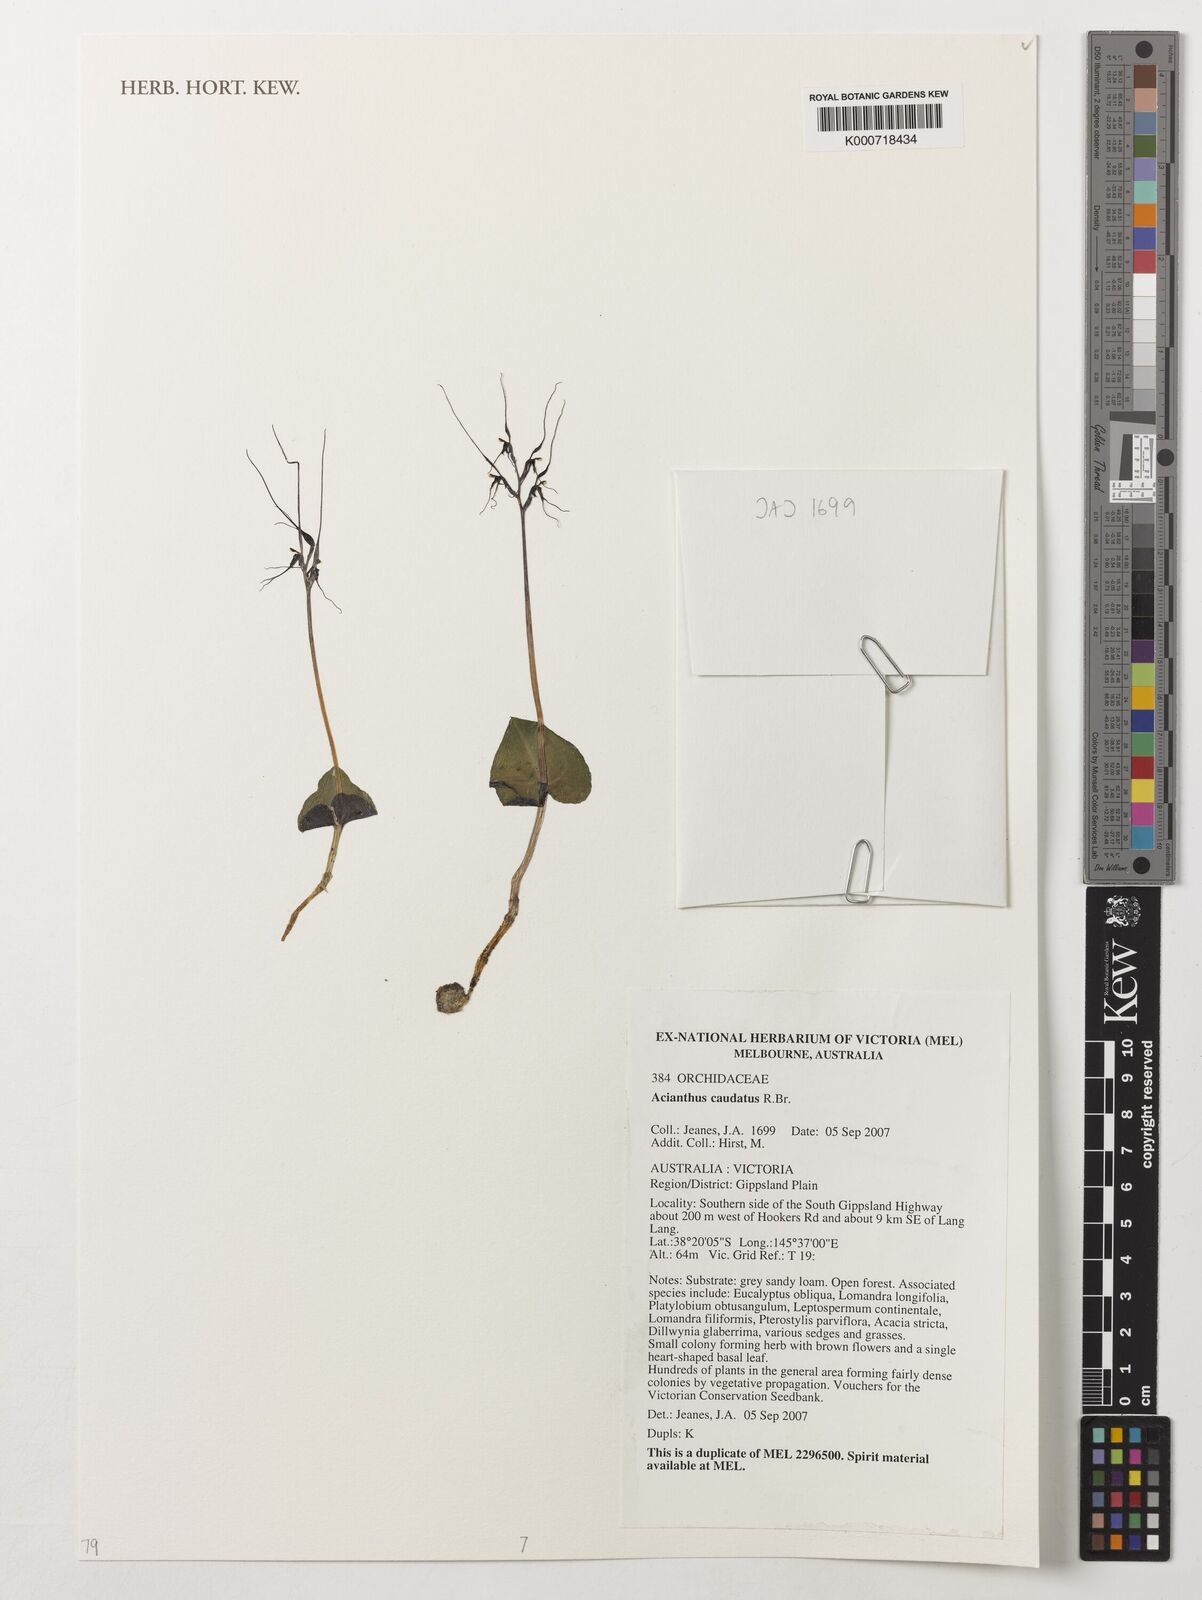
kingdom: Plantae
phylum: Tracheophyta
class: Liliopsida
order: Asparagales
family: Orchidaceae
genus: Acianthus
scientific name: Acianthus caudatus
